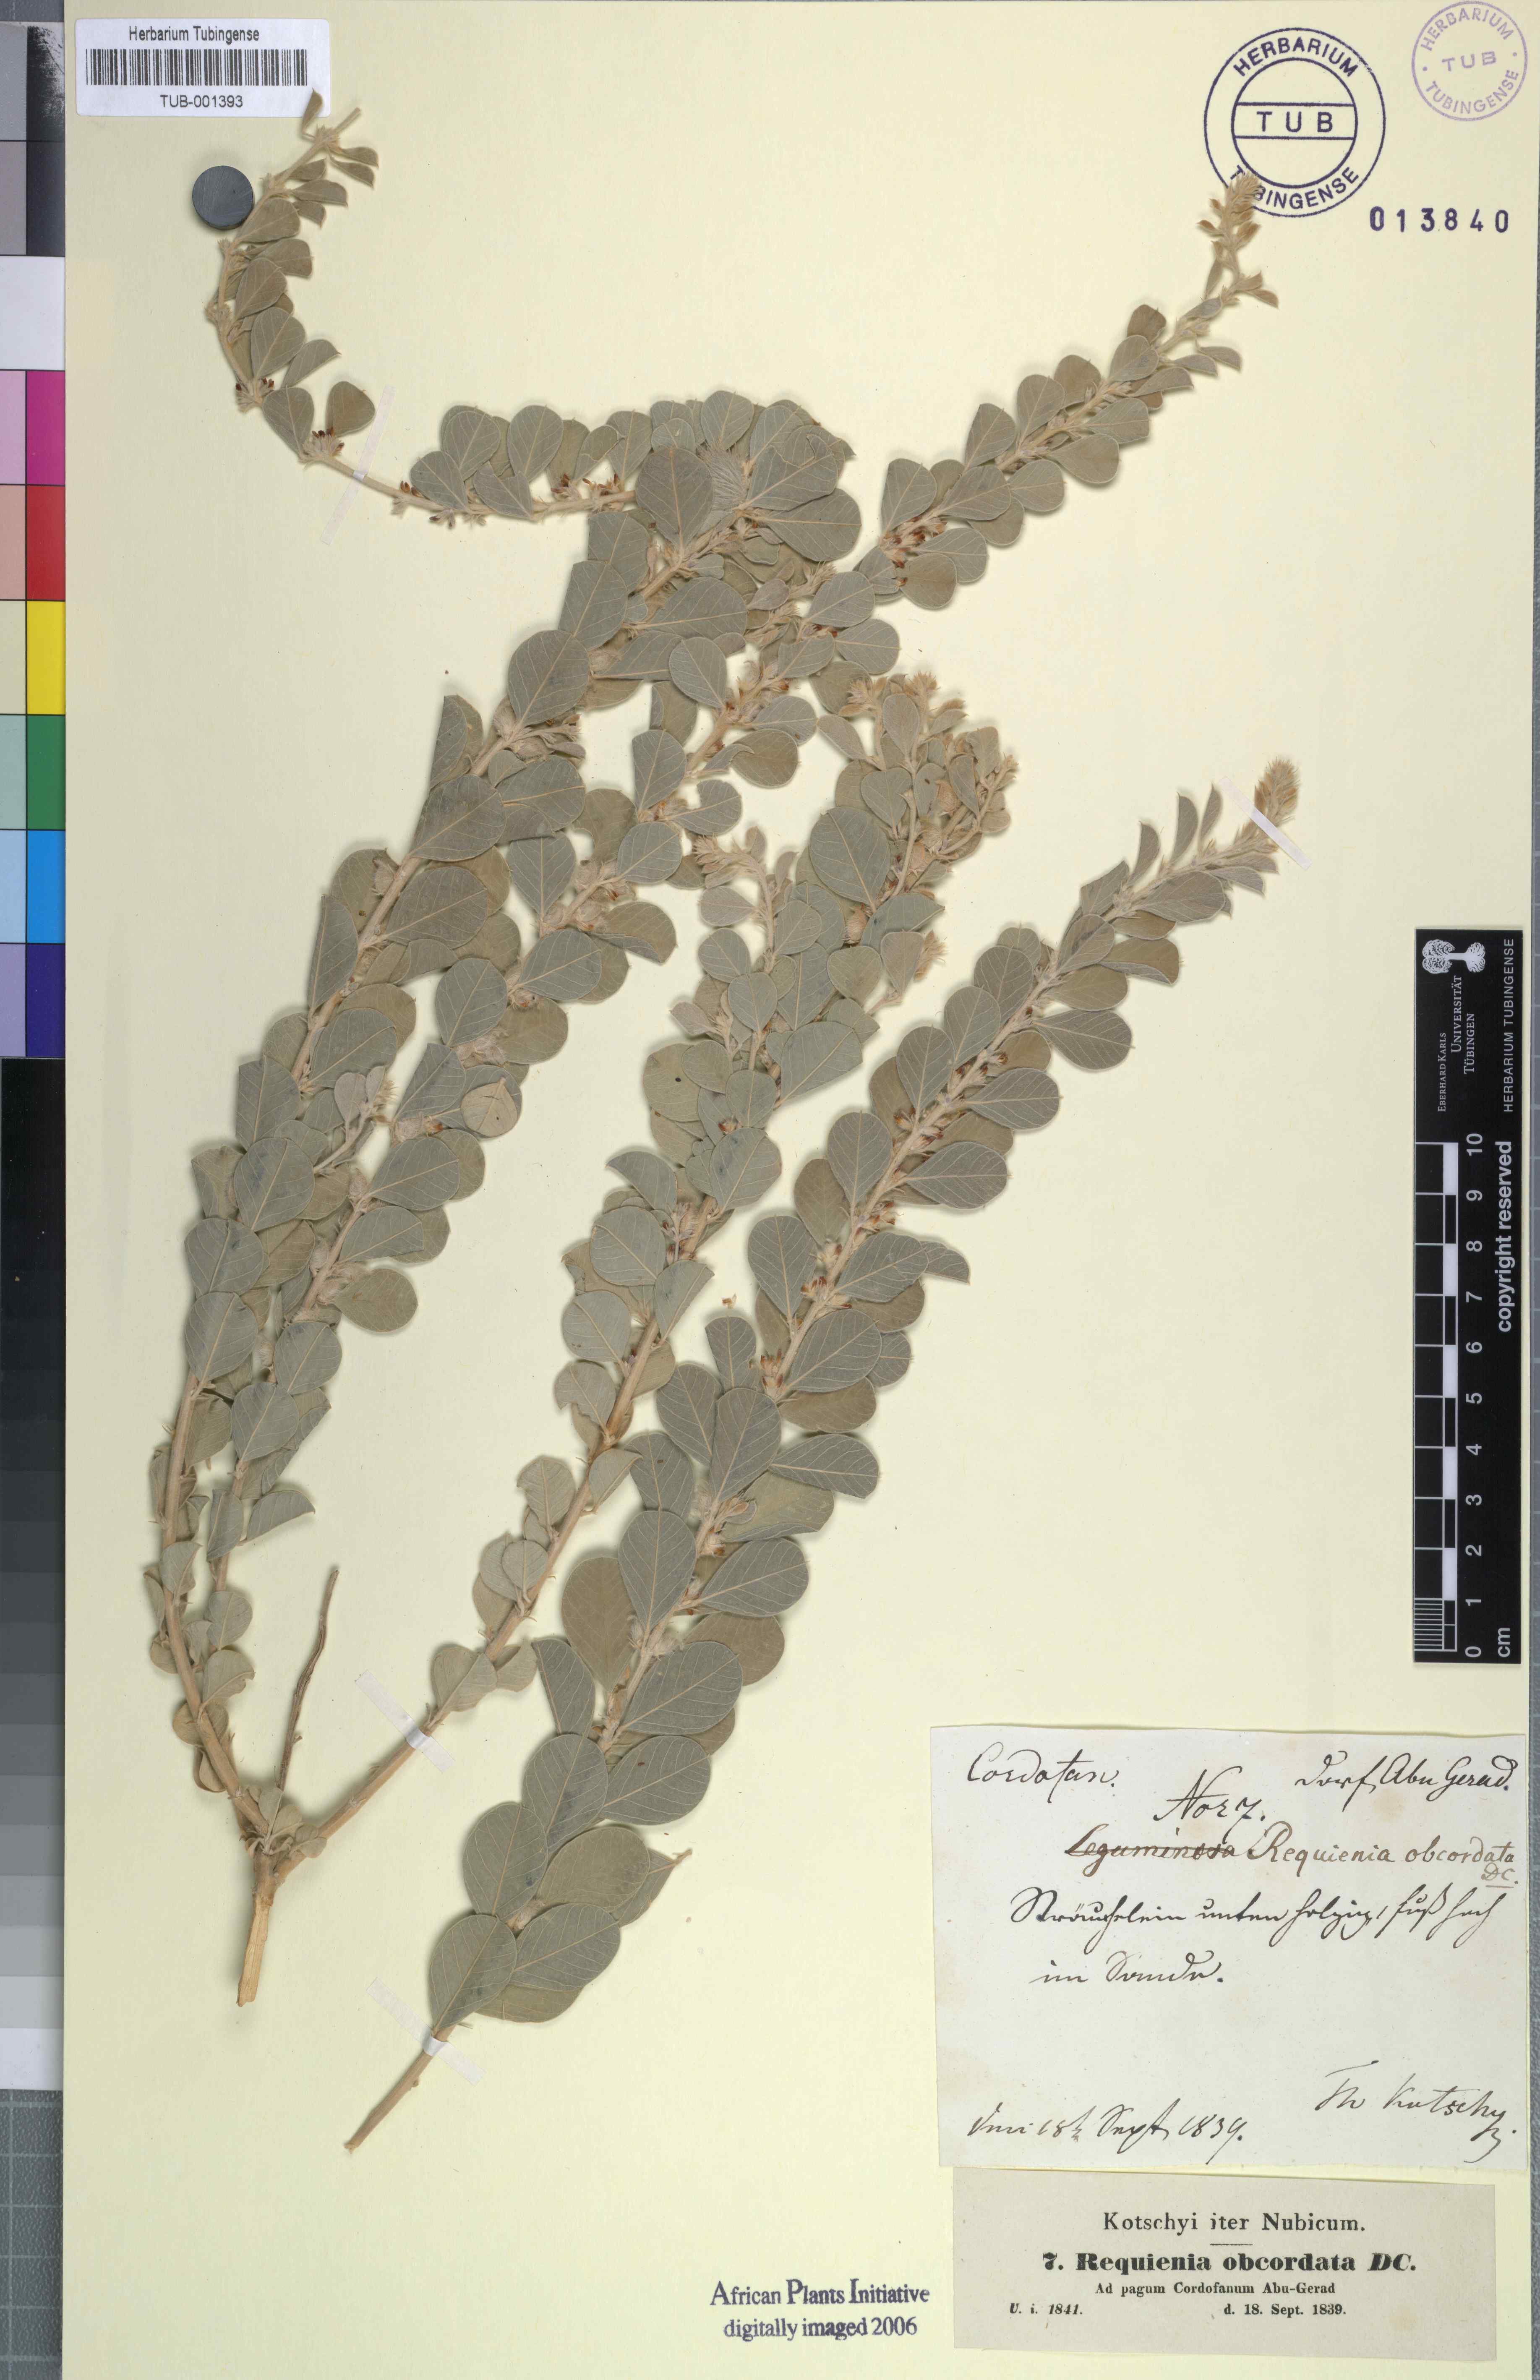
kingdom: Plantae
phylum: Tracheophyta
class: Magnoliopsida
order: Fabales
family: Fabaceae
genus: Tephrosia
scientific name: Tephrosia obcordata
